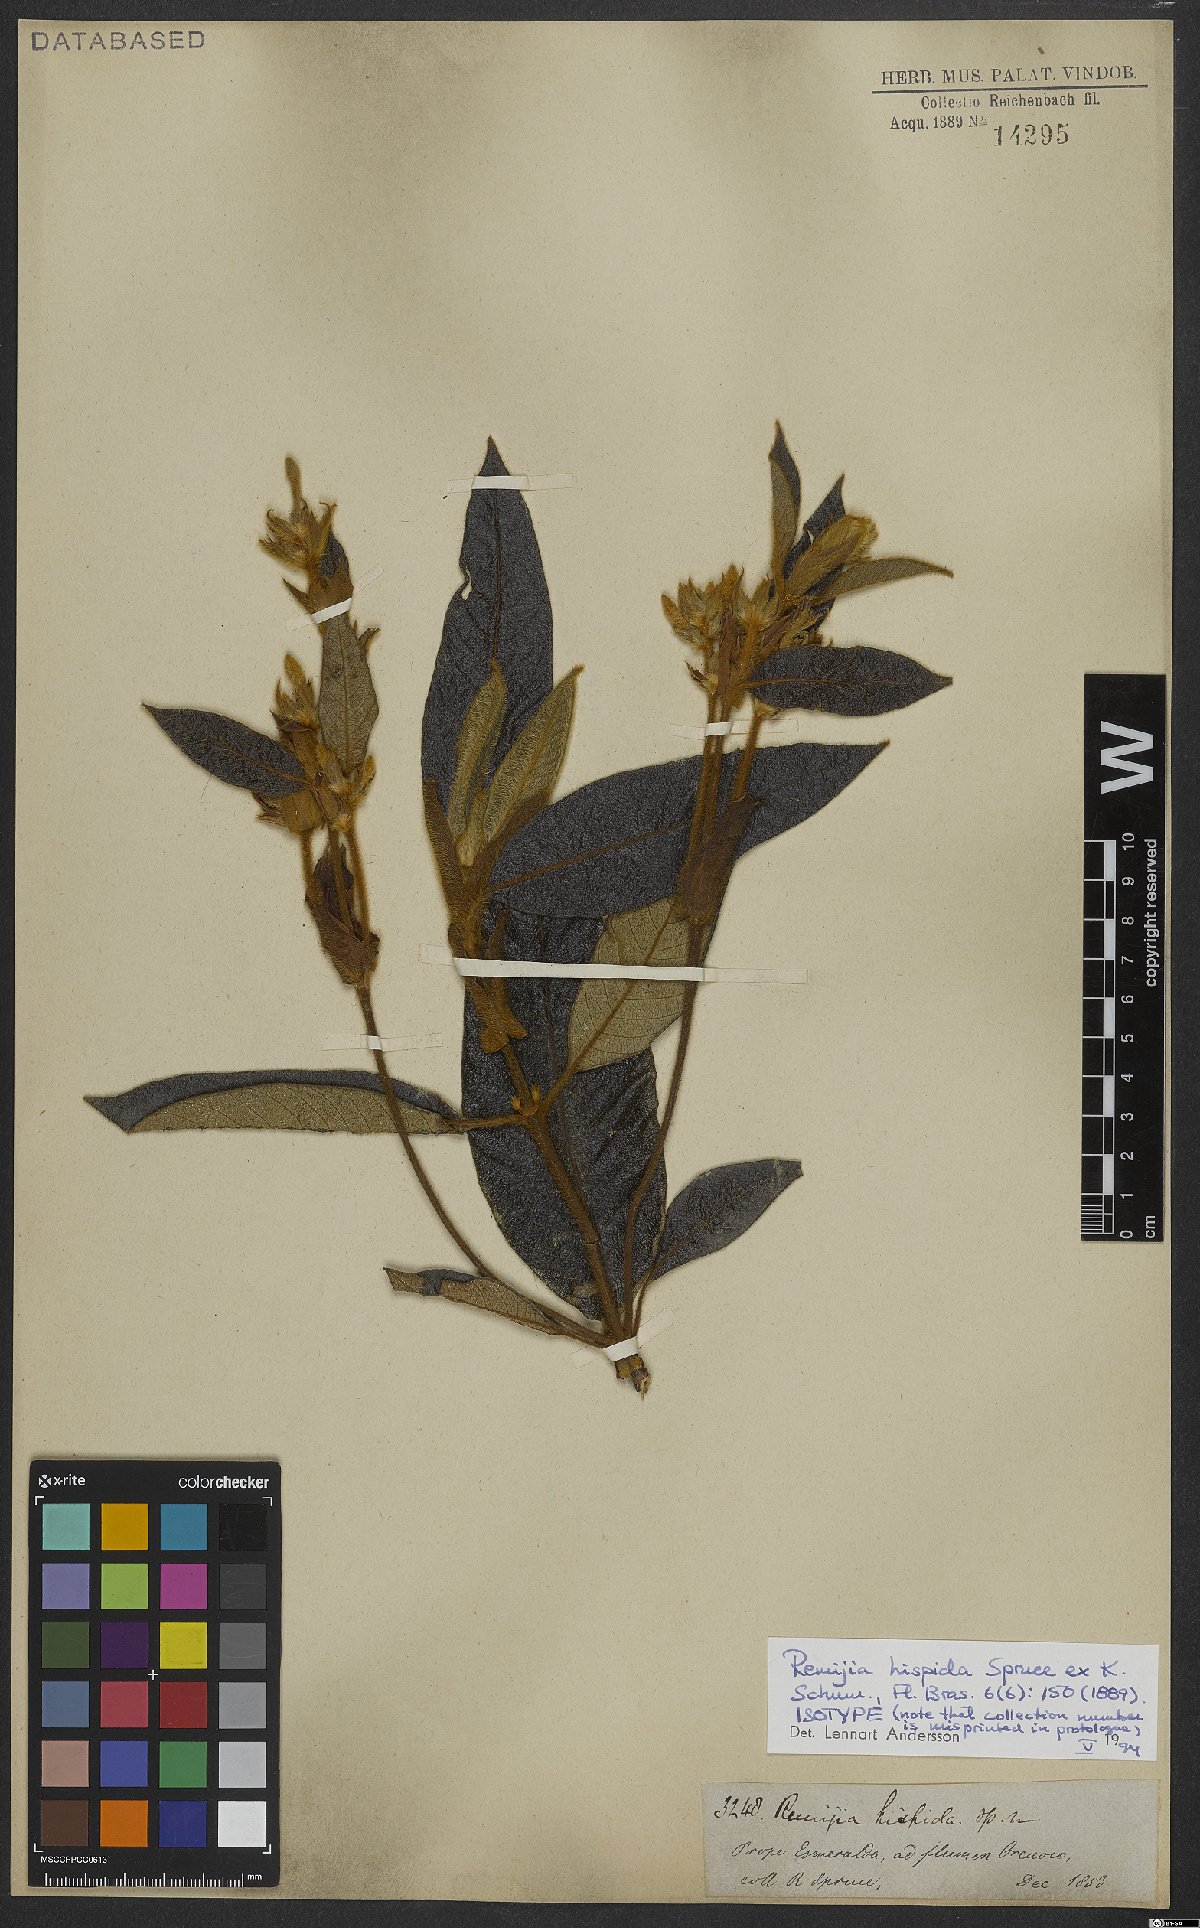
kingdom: Plantae
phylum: Tracheophyta
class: Magnoliopsida
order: Gentianales
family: Rubiaceae
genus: Remijia
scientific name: Remijia hispida
